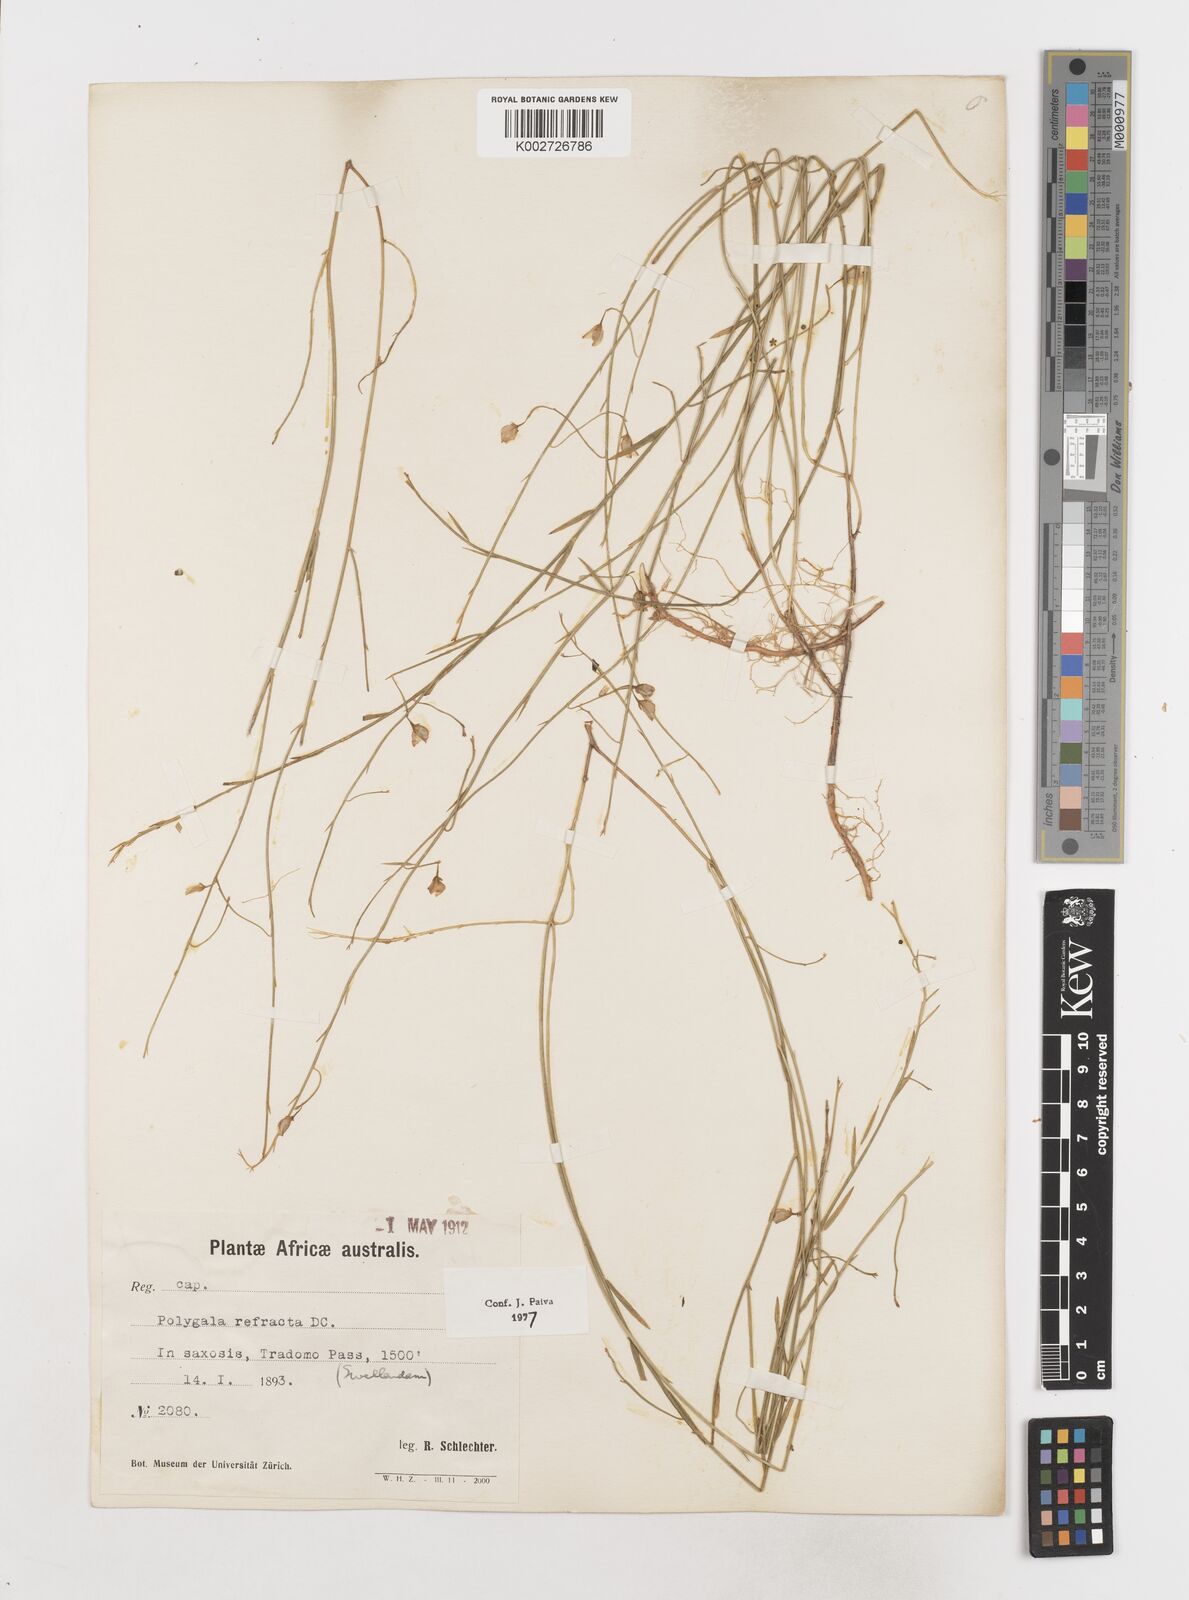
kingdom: Plantae
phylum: Tracheophyta
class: Magnoliopsida
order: Fabales
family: Polygalaceae
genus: Polygala
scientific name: Polygala refracta
